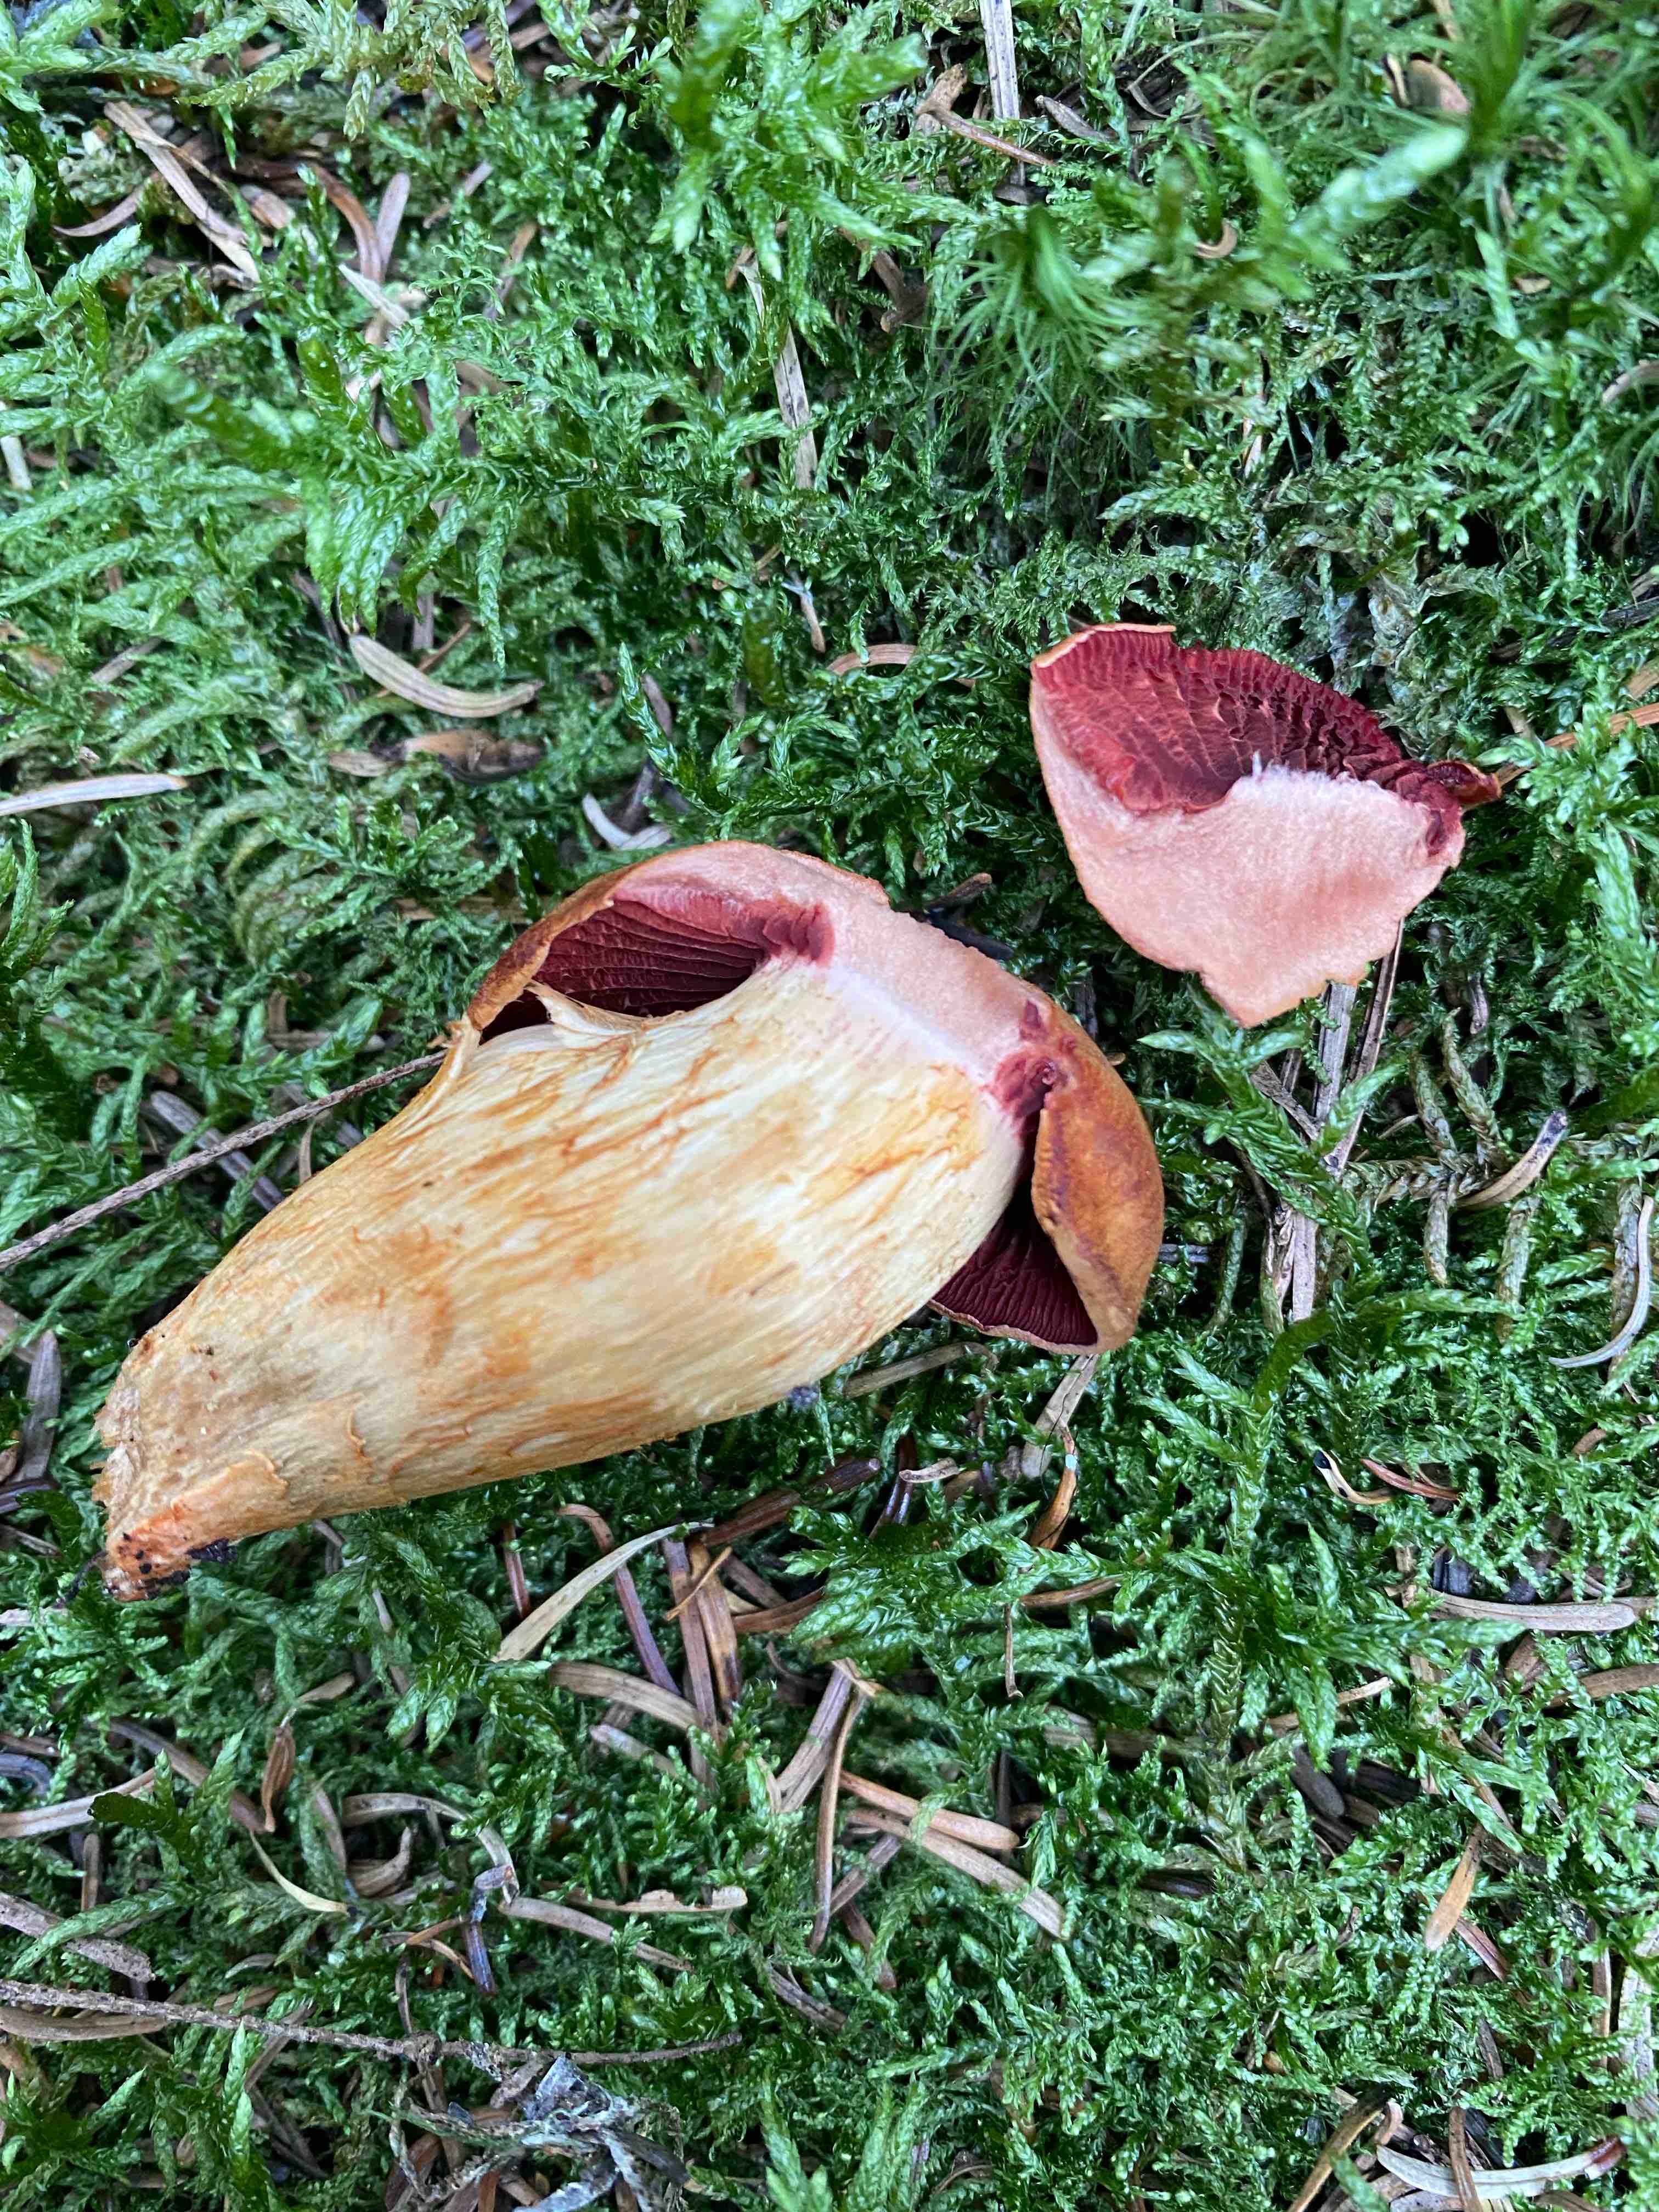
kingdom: Fungi
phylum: Basidiomycota
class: Agaricomycetes
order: Agaricales
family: Cortinariaceae
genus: Cortinarius
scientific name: Cortinarius
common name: cinnoberbladet slørhat
